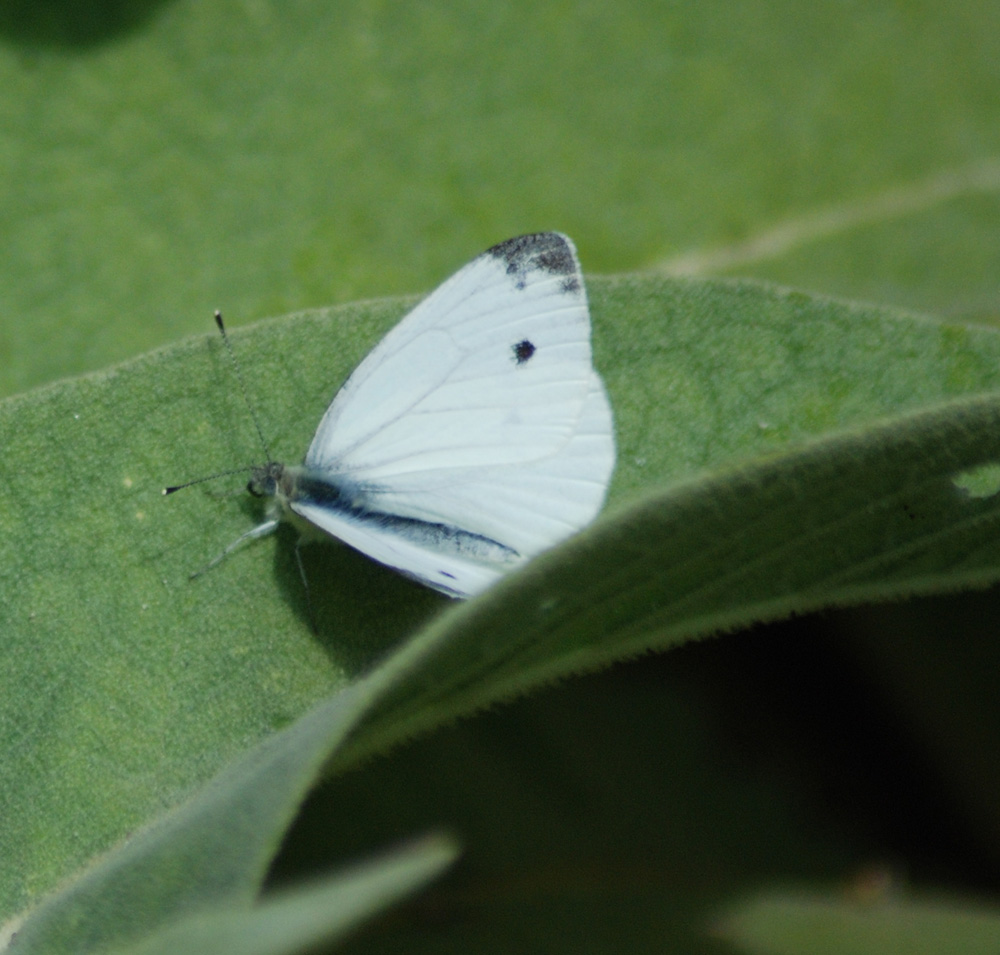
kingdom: Animalia
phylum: Arthropoda
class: Insecta
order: Lepidoptera
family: Pieridae
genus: Pieris
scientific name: Pieris rapae
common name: Small white
